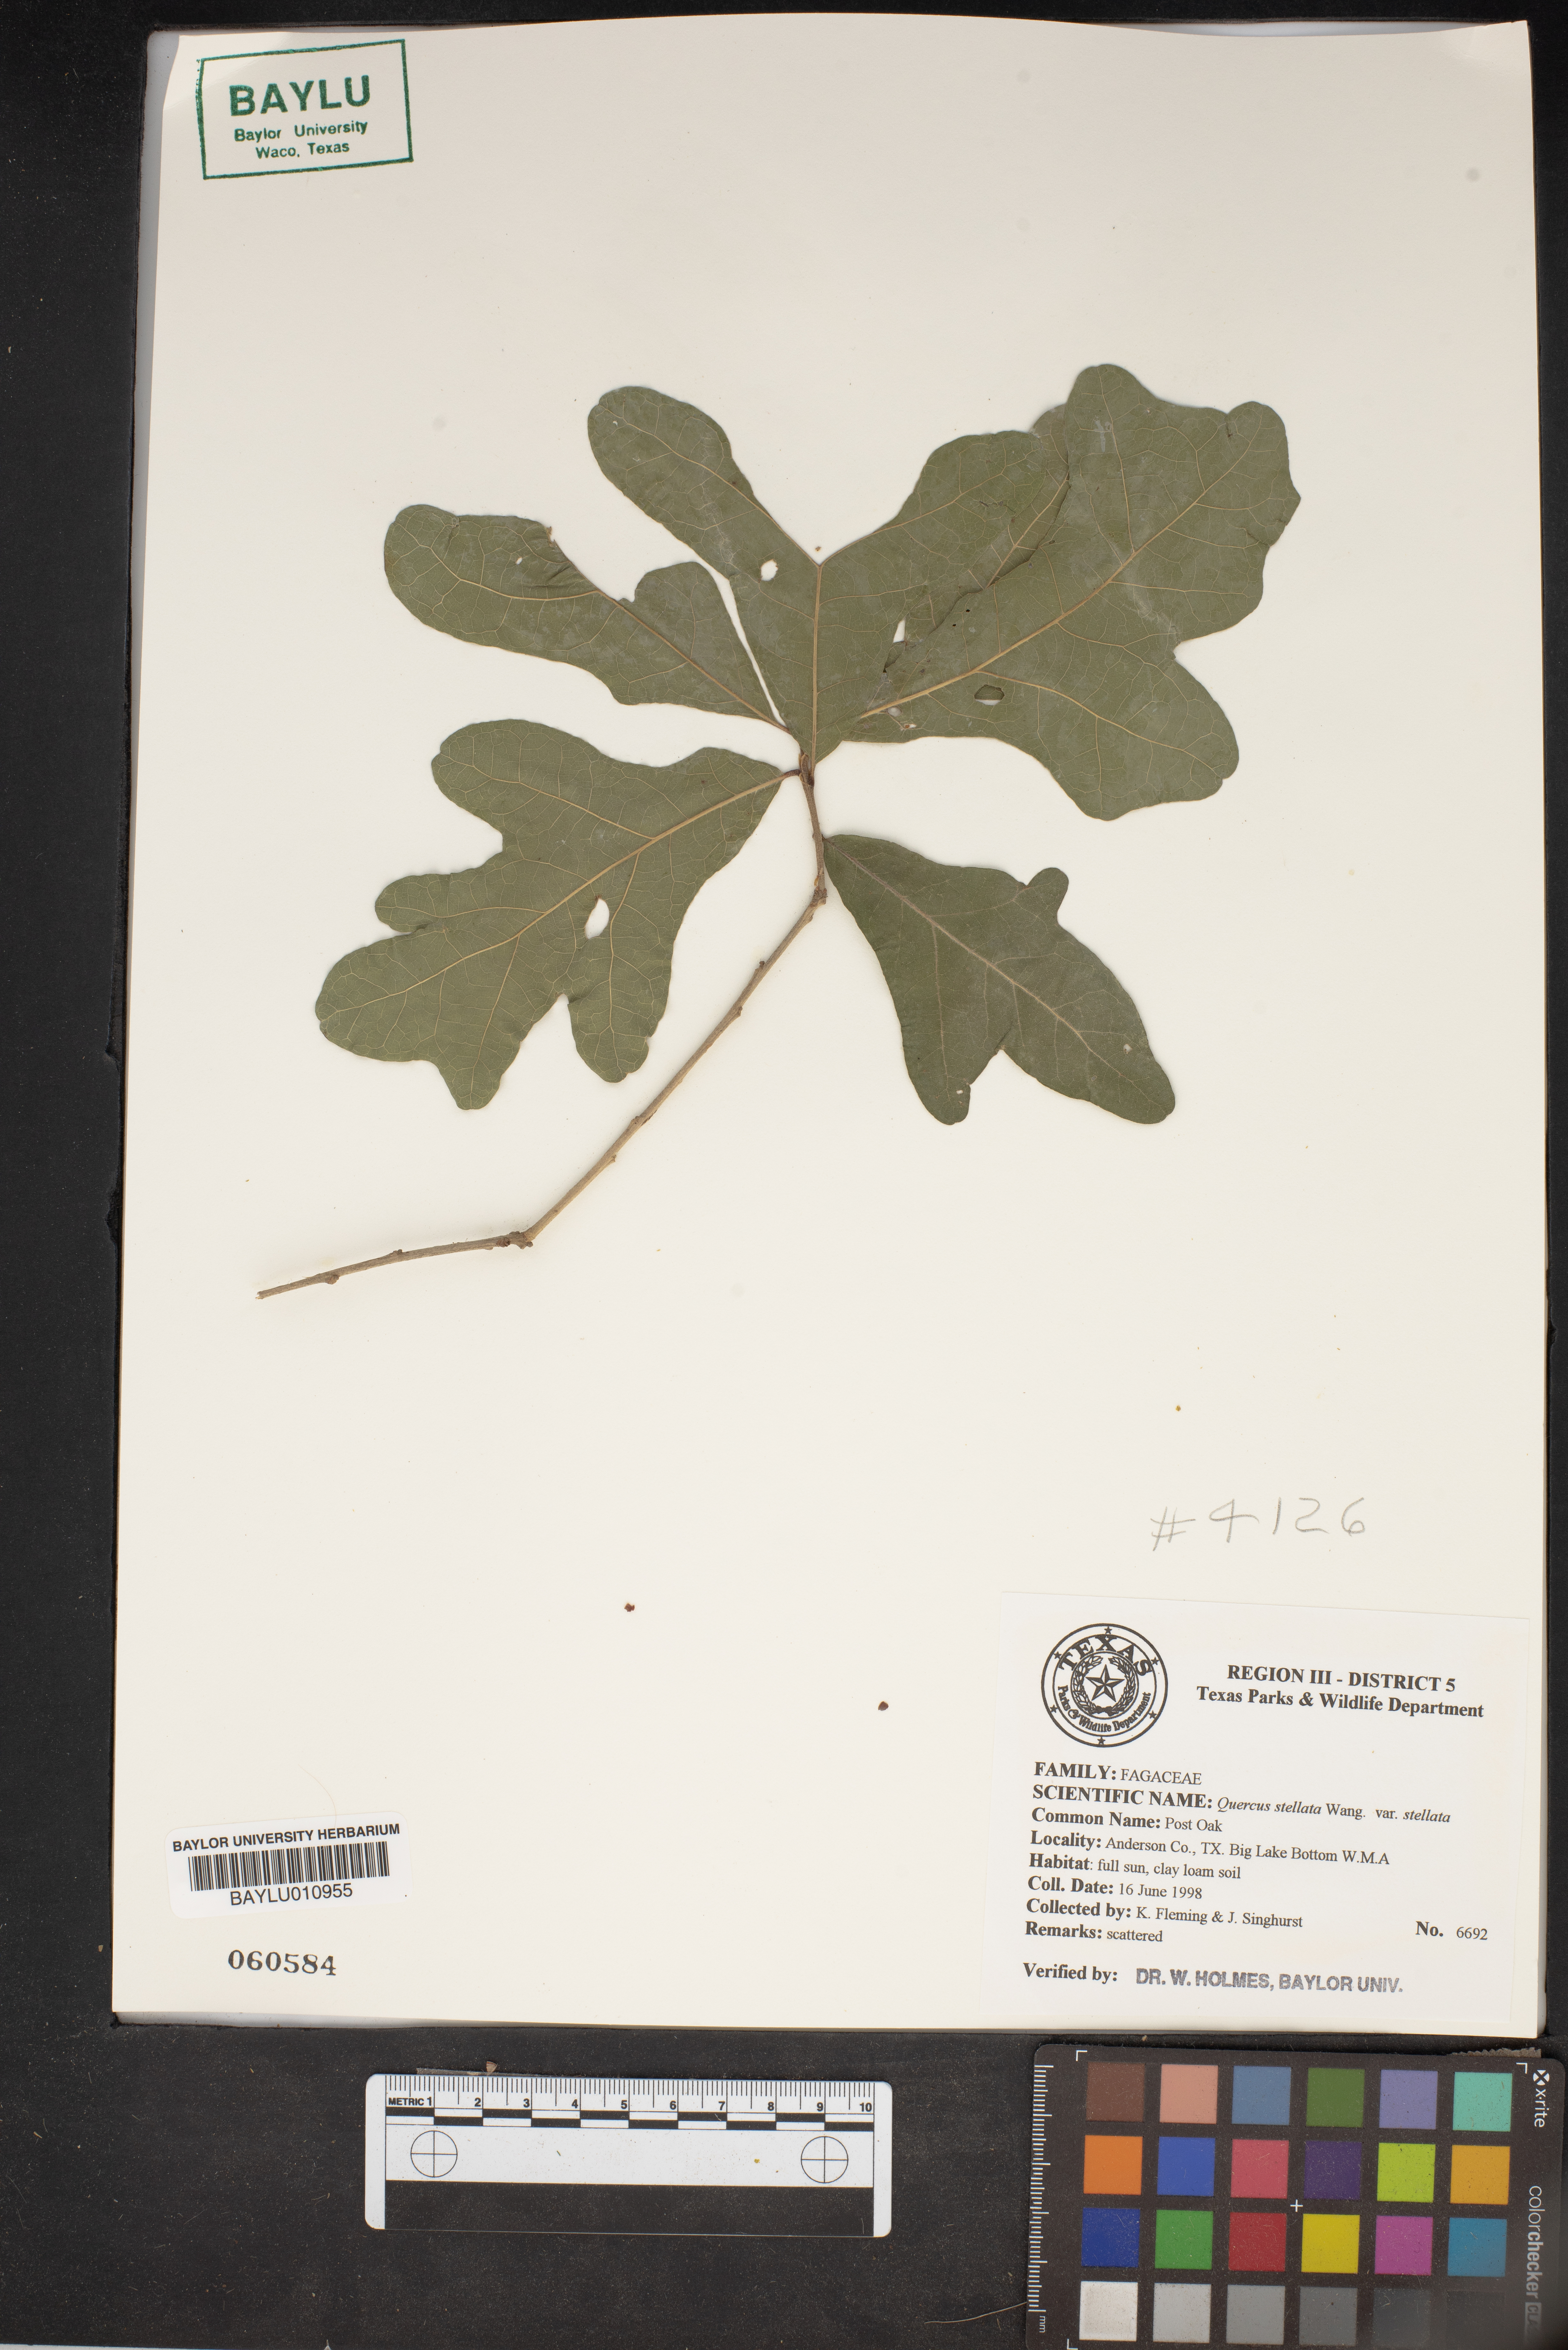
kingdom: Plantae
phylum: Tracheophyta
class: Magnoliopsida
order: Fagales
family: Fagaceae
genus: Quercus
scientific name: Quercus stellata
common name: Post oak
